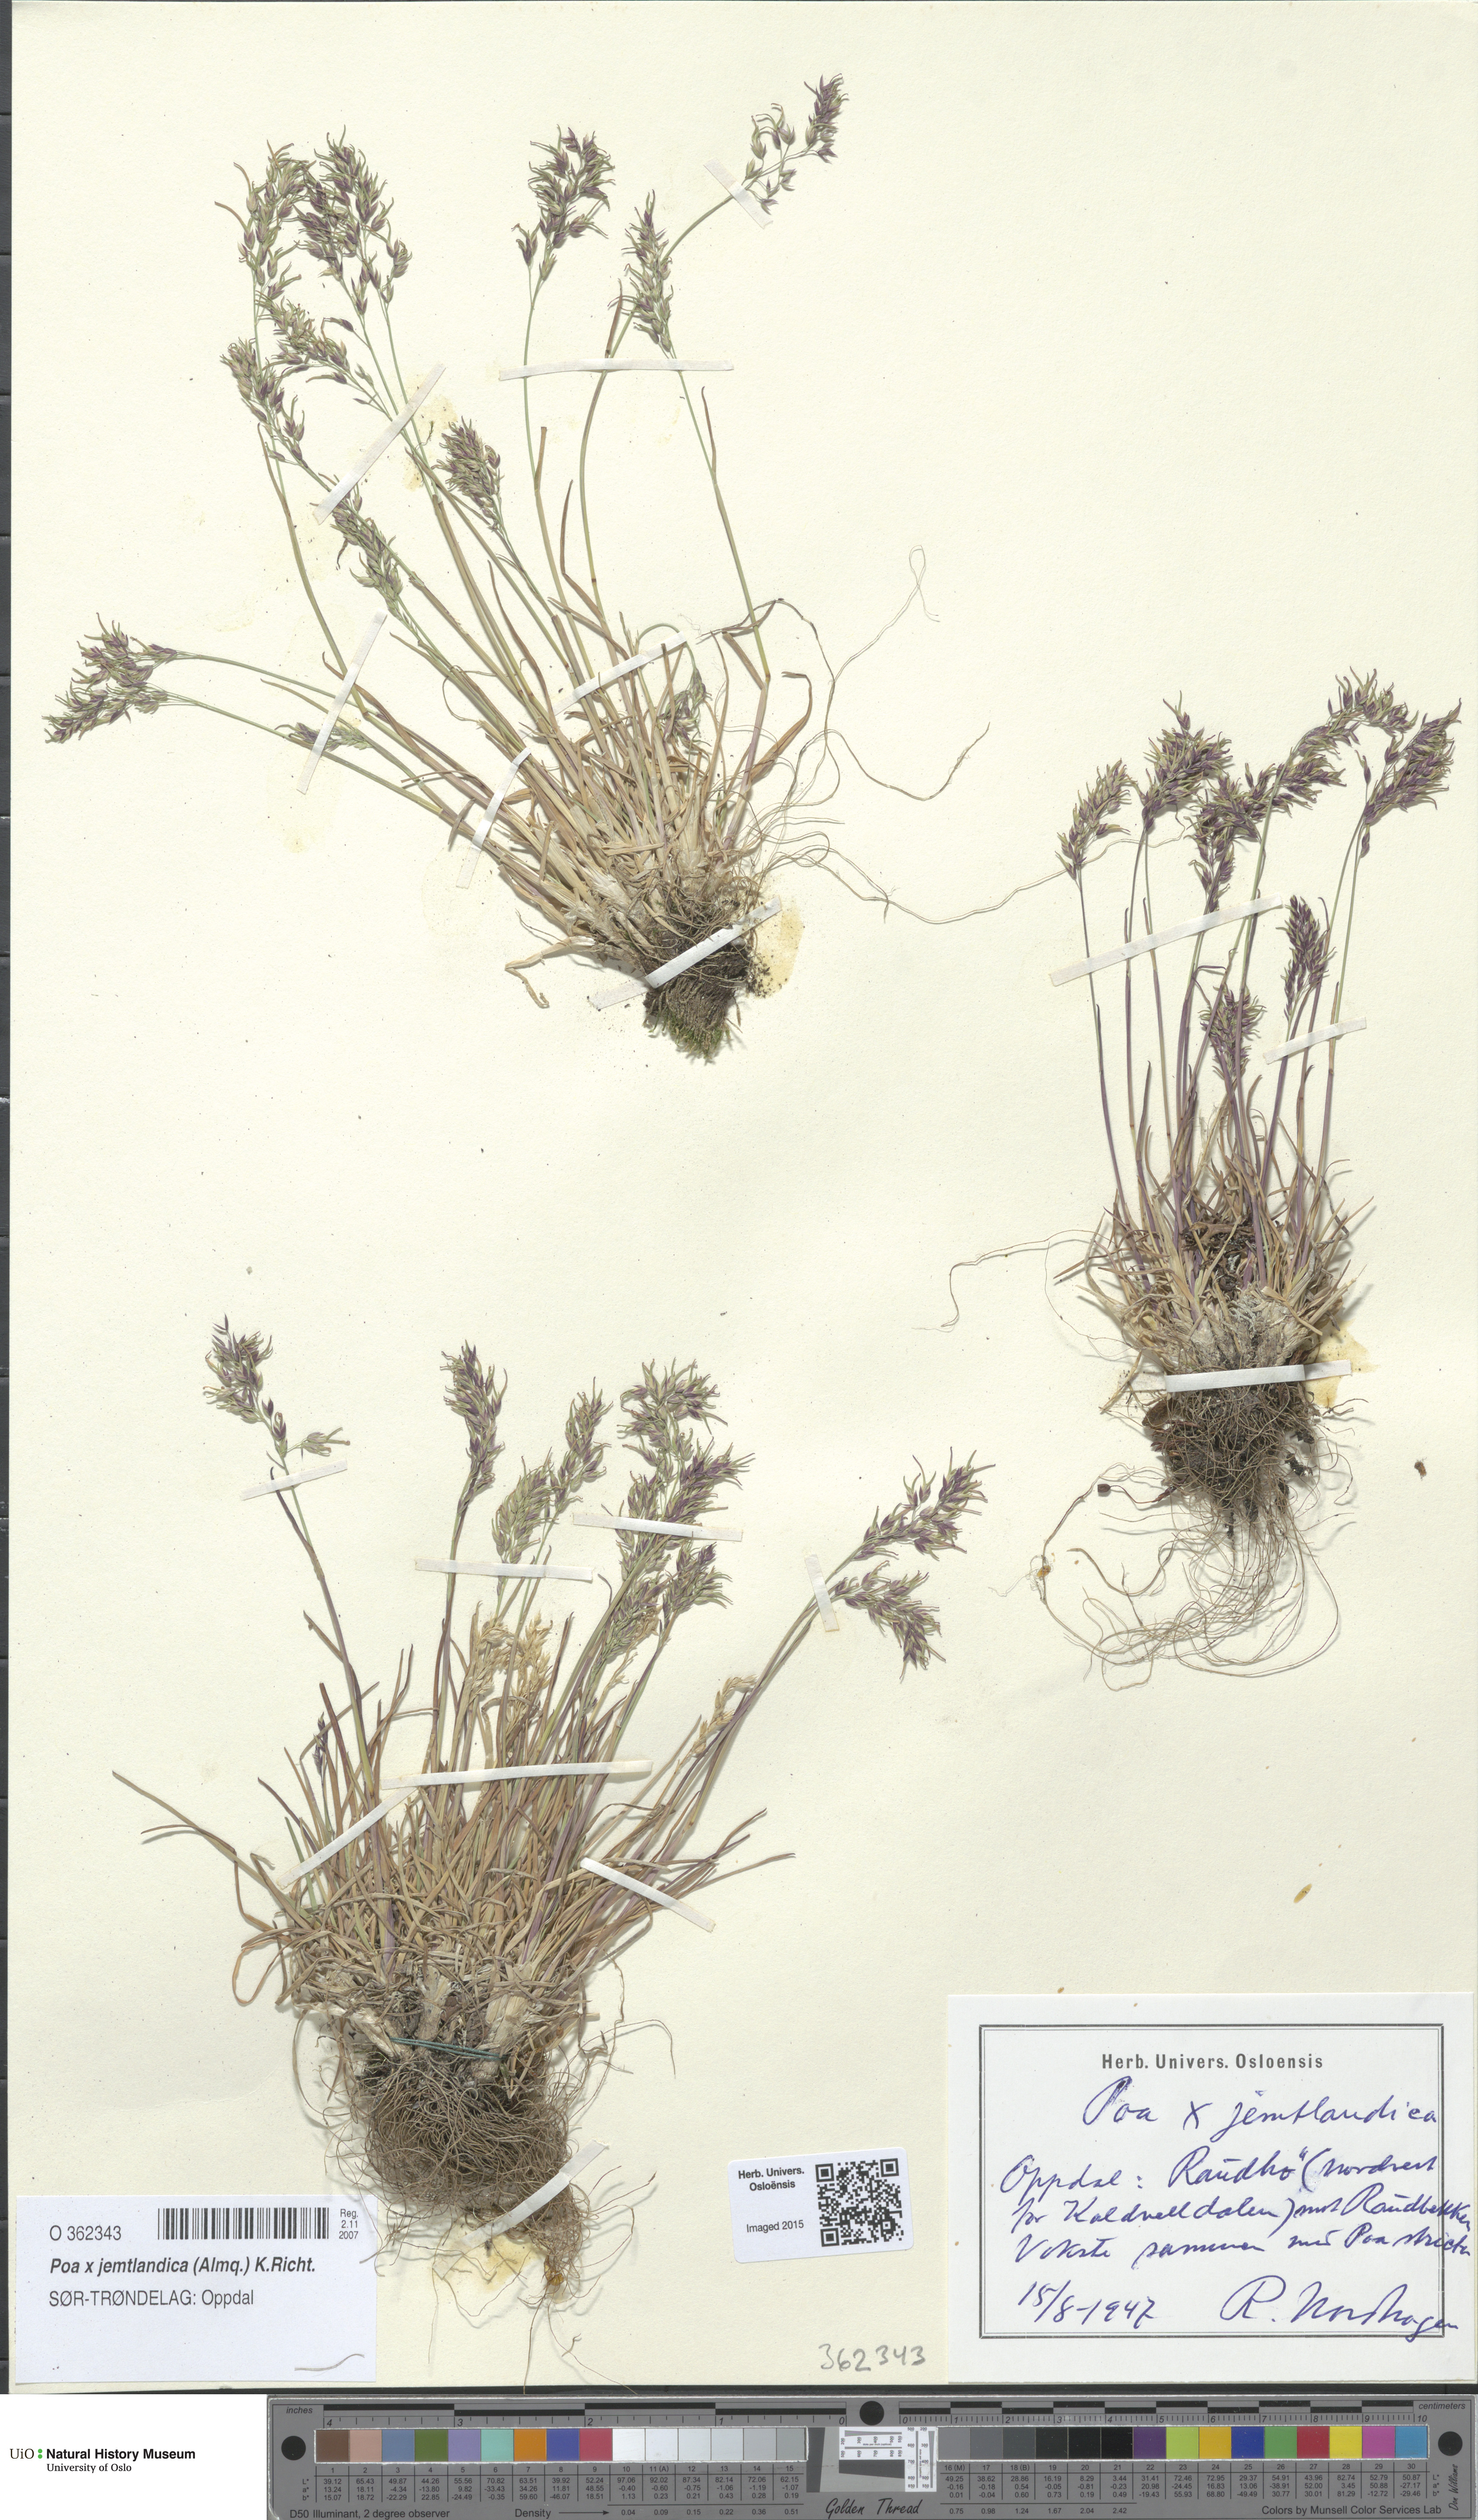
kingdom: Plantae
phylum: Tracheophyta
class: Liliopsida
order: Poales
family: Poaceae
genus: Poa
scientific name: Poa jemtlandica
